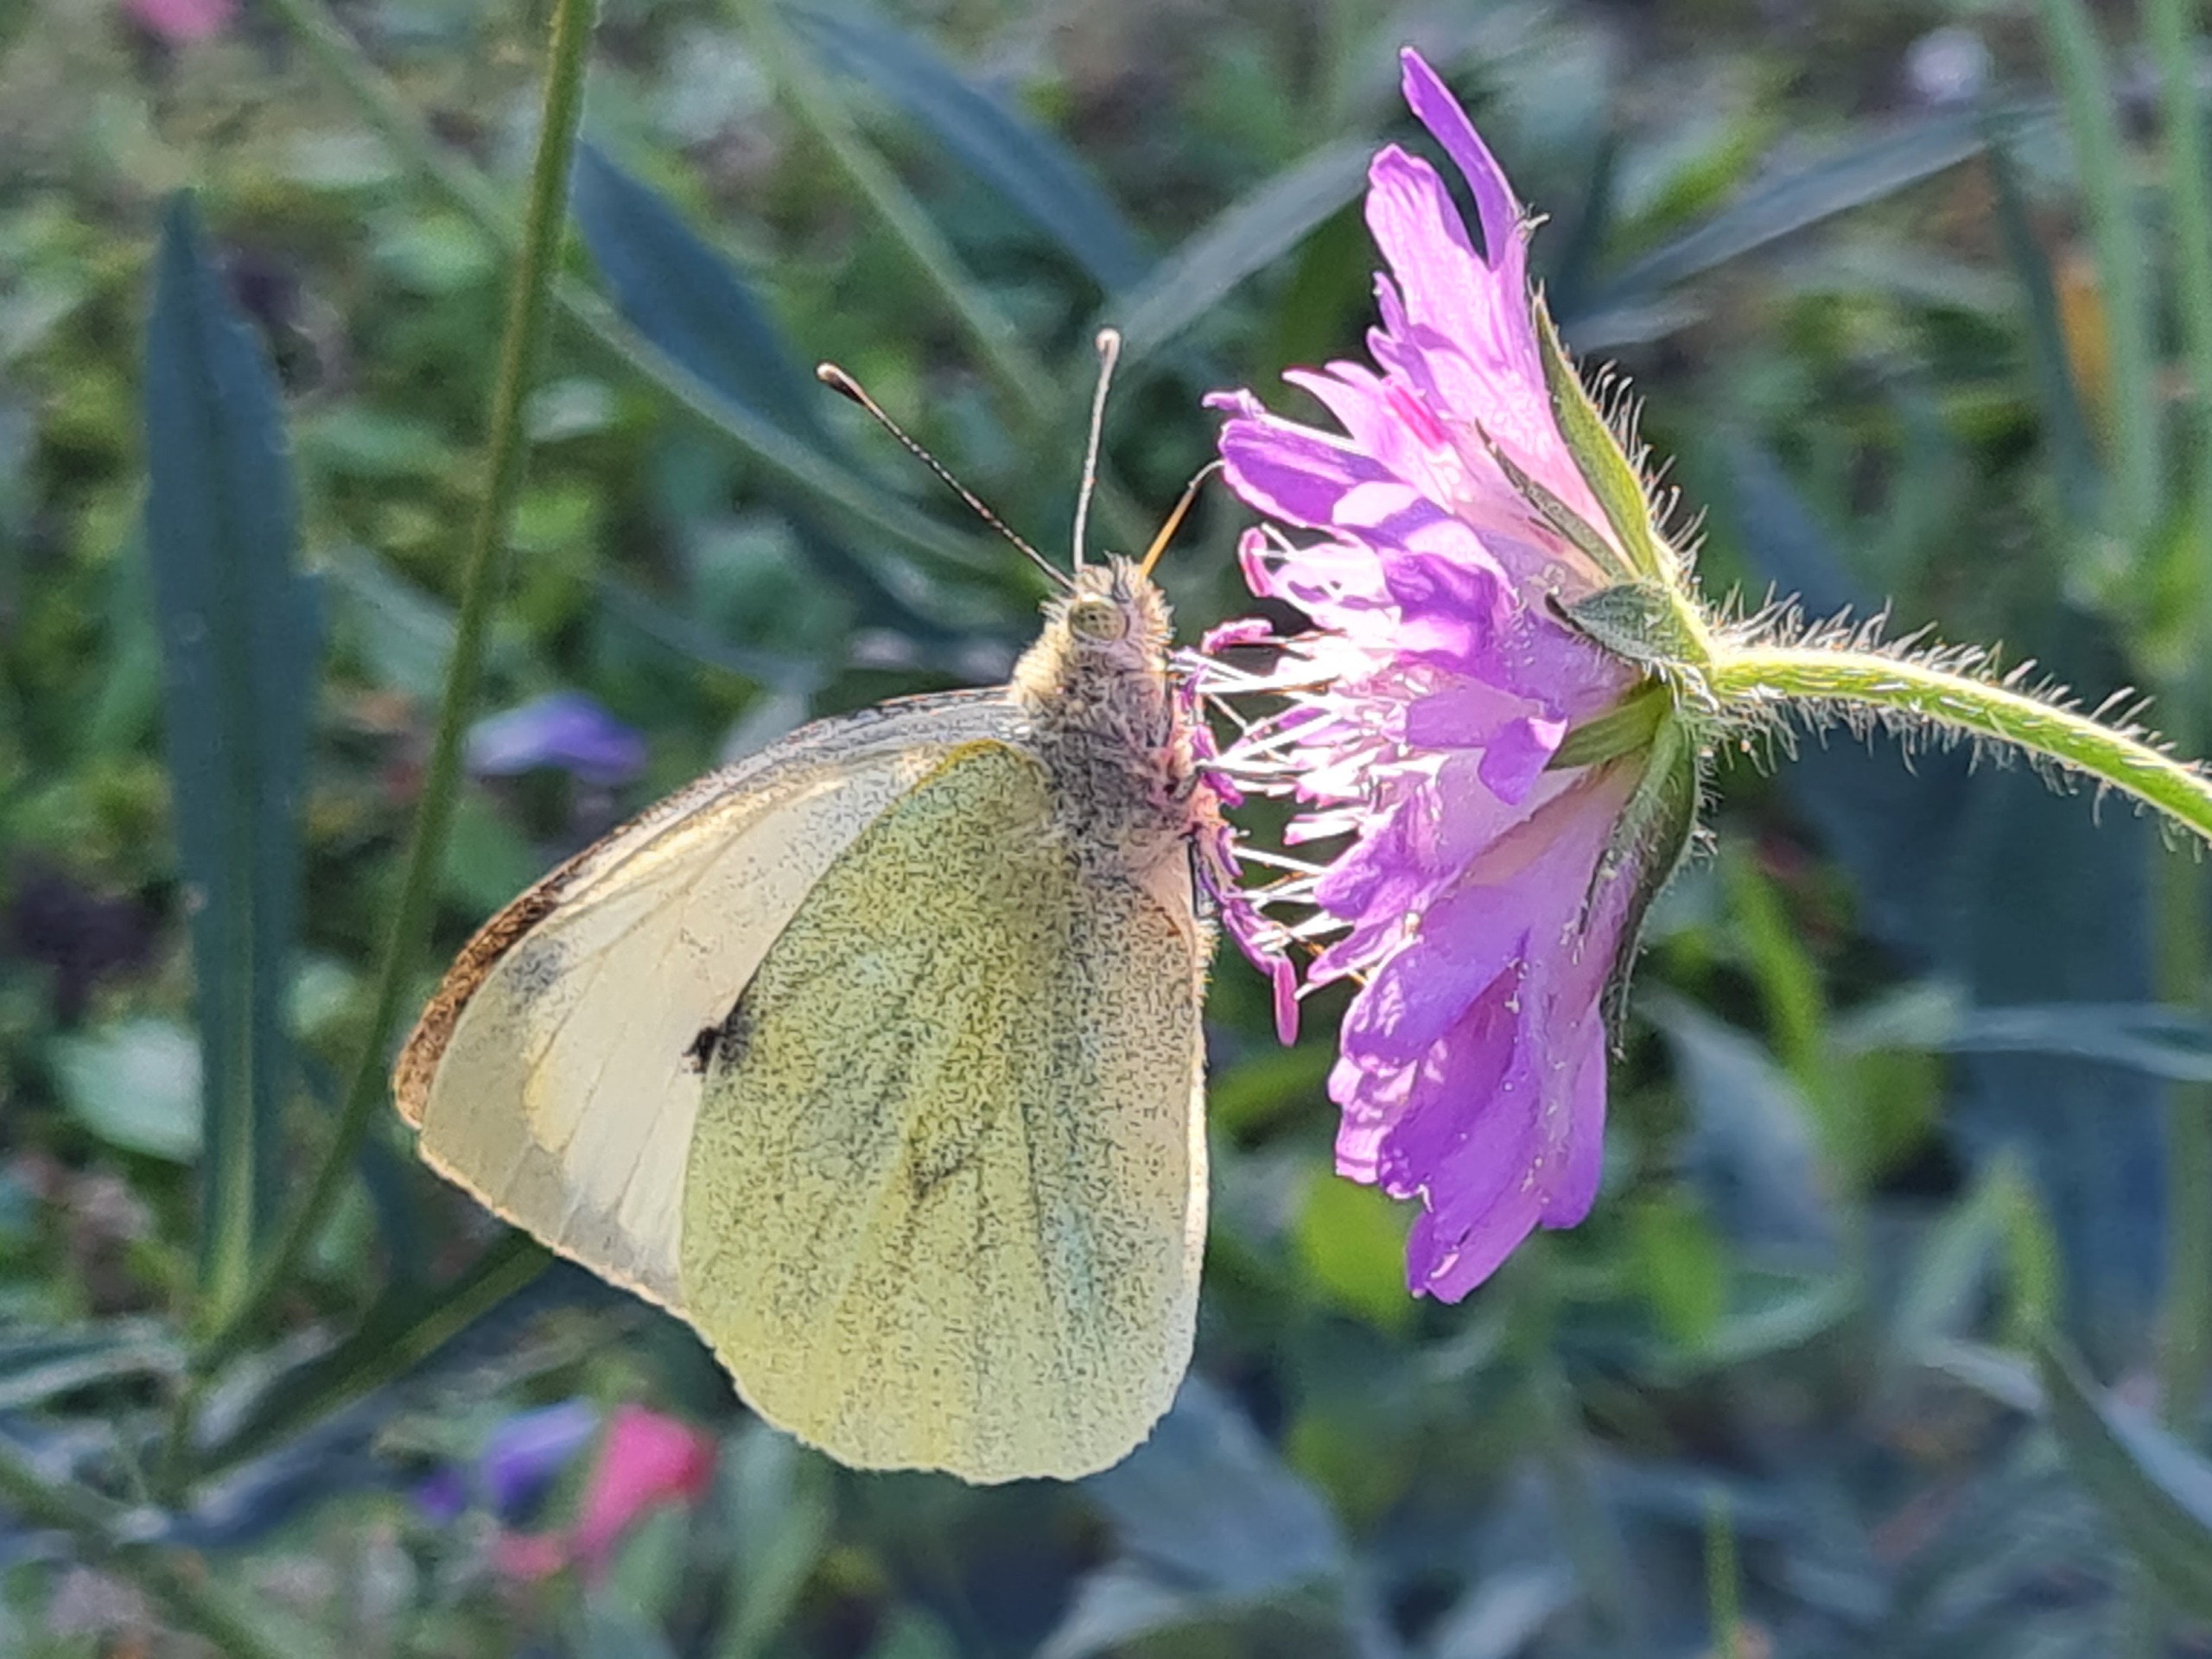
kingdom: Animalia
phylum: Arthropoda
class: Insecta
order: Lepidoptera
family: Pieridae
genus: Pieris
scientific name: Pieris brassicae
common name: Stor kålsommerfugl
